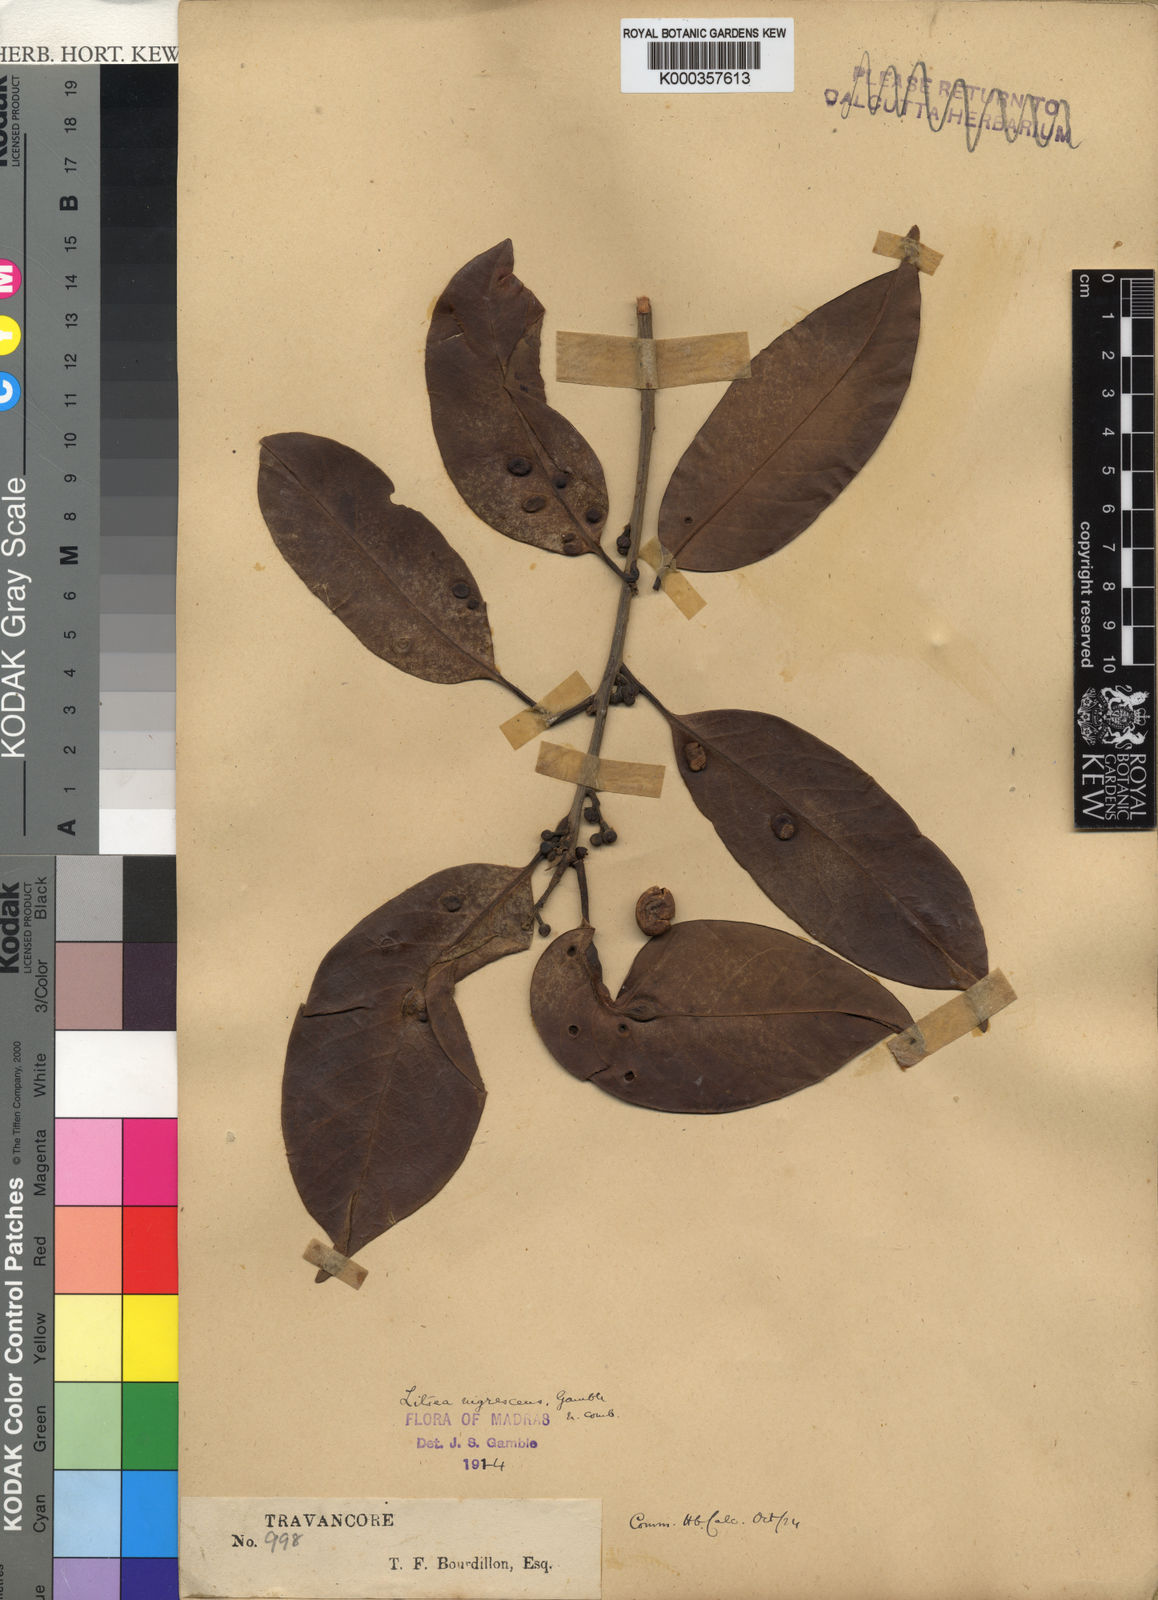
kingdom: Plantae
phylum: Tracheophyta
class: Magnoliopsida
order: Laurales
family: Lauraceae
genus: Litsea
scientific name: Litsea nigrescens
